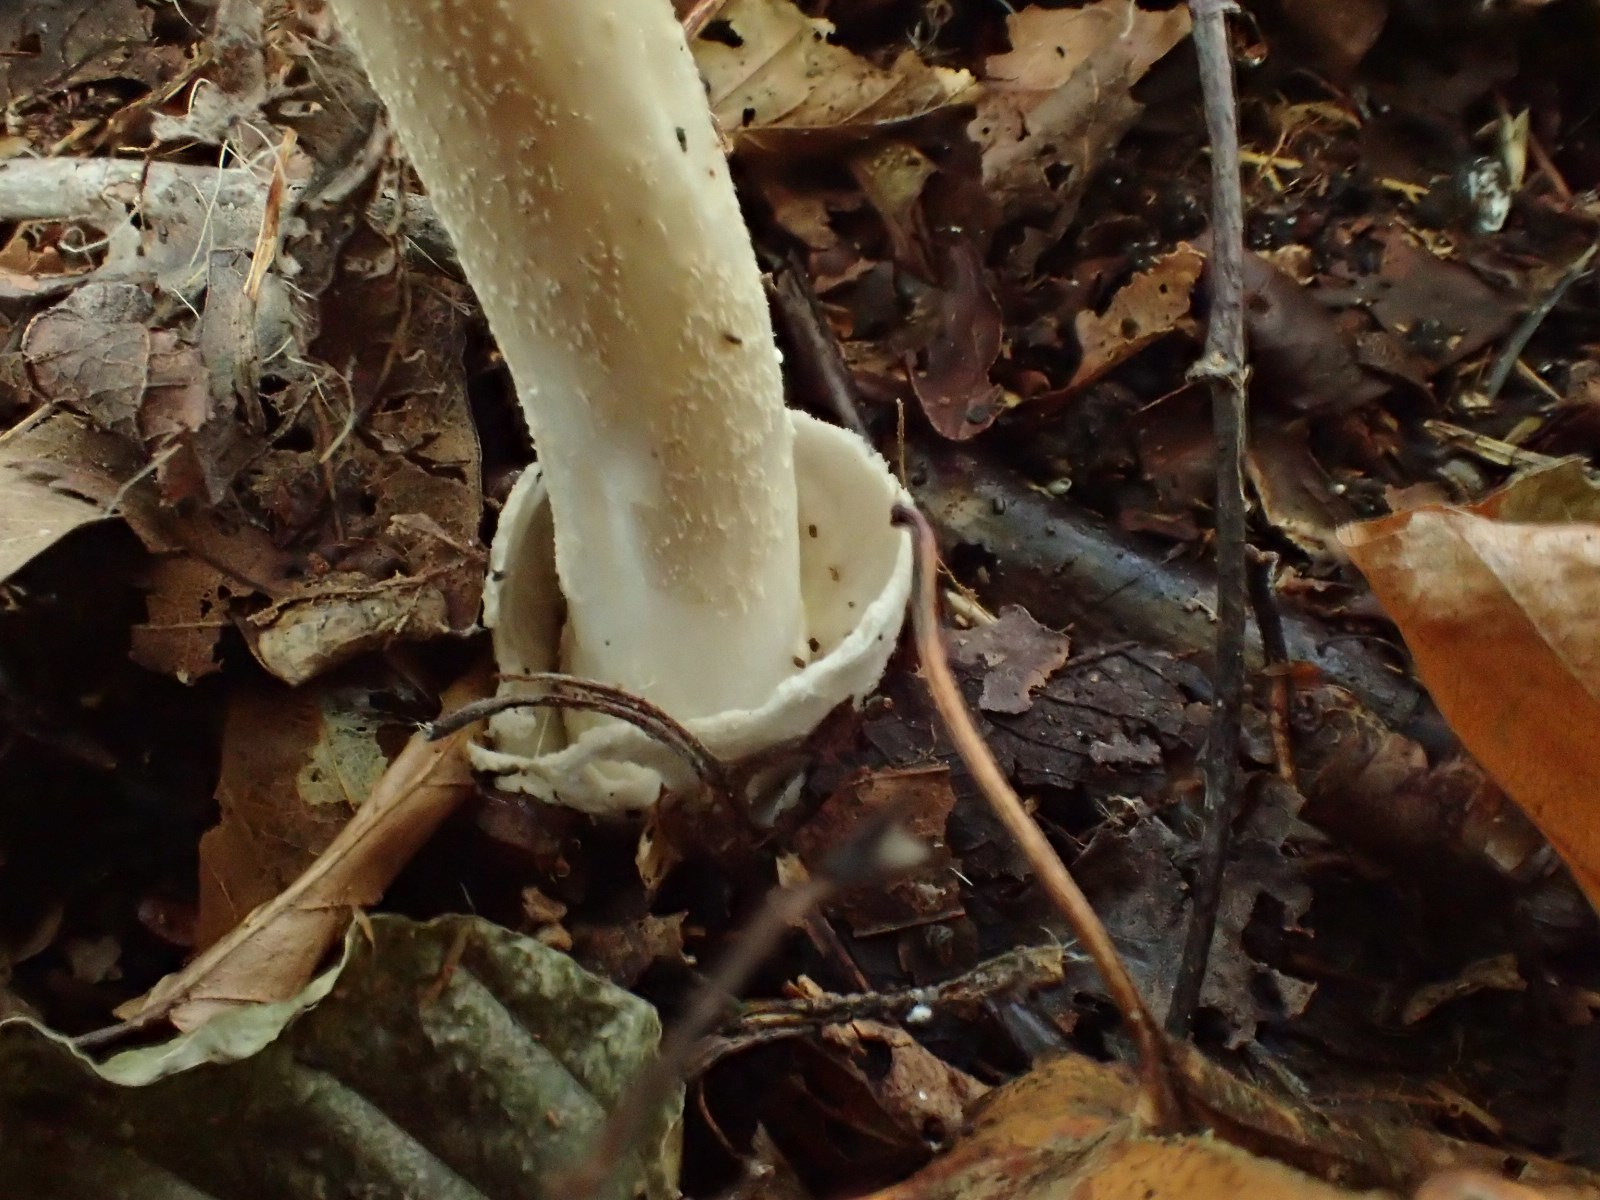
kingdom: Fungi
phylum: Basidiomycota
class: Agaricomycetes
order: Agaricales
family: Amanitaceae
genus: Amanita
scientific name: Amanita vaginata
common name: grå kam-fluesvamp
